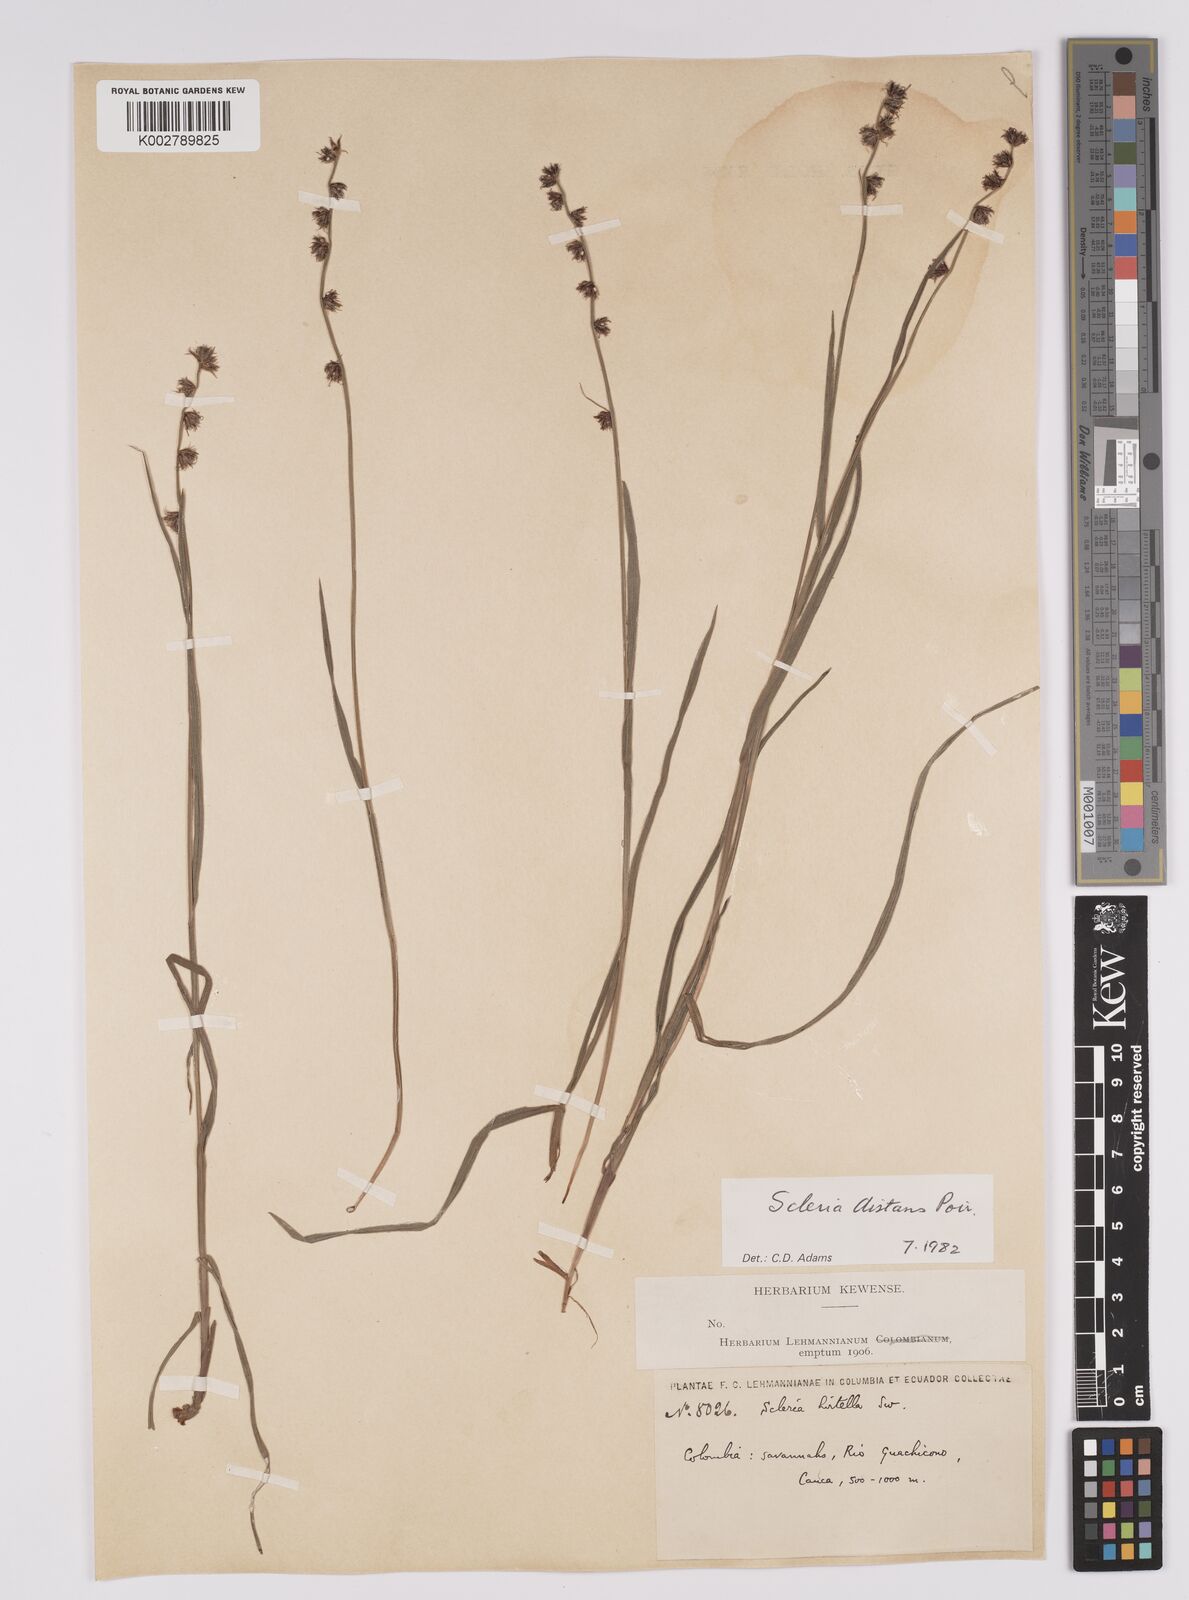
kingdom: Plantae
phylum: Tracheophyta
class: Liliopsida
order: Poales
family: Cyperaceae
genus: Scleria
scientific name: Scleria distans
